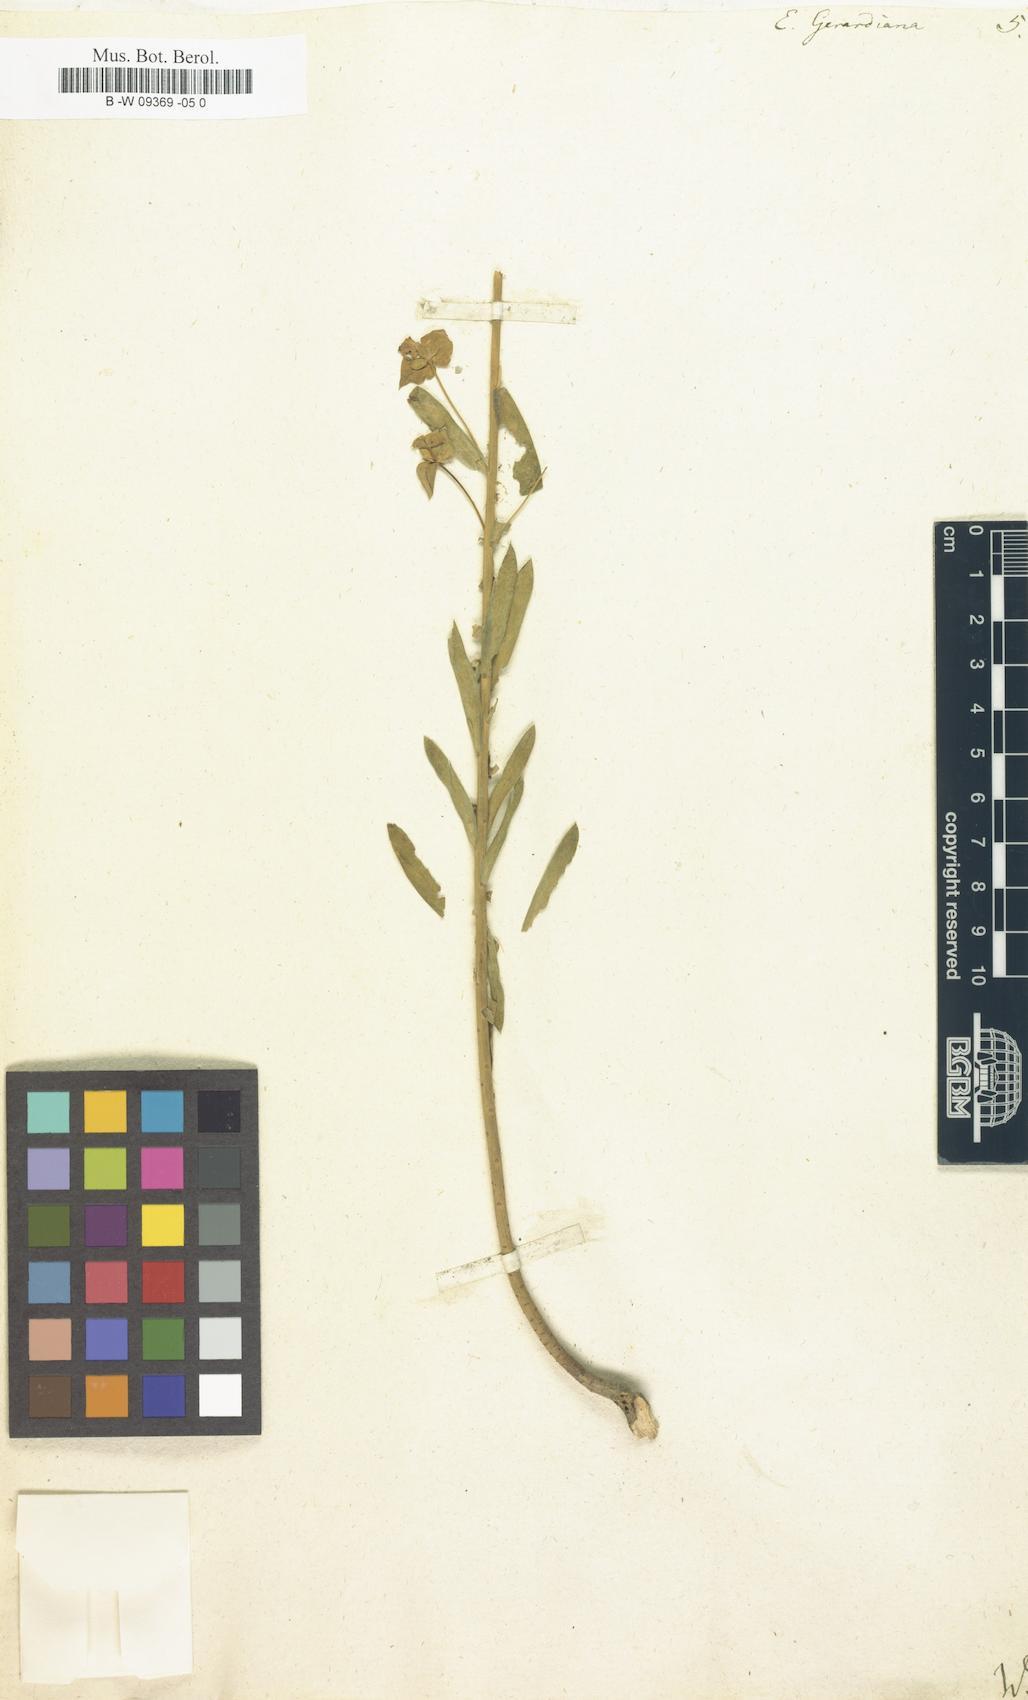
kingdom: Plantae
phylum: Tracheophyta
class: Magnoliopsida
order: Malpighiales
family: Euphorbiaceae
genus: Euphorbia
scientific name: Euphorbia seguieriana
